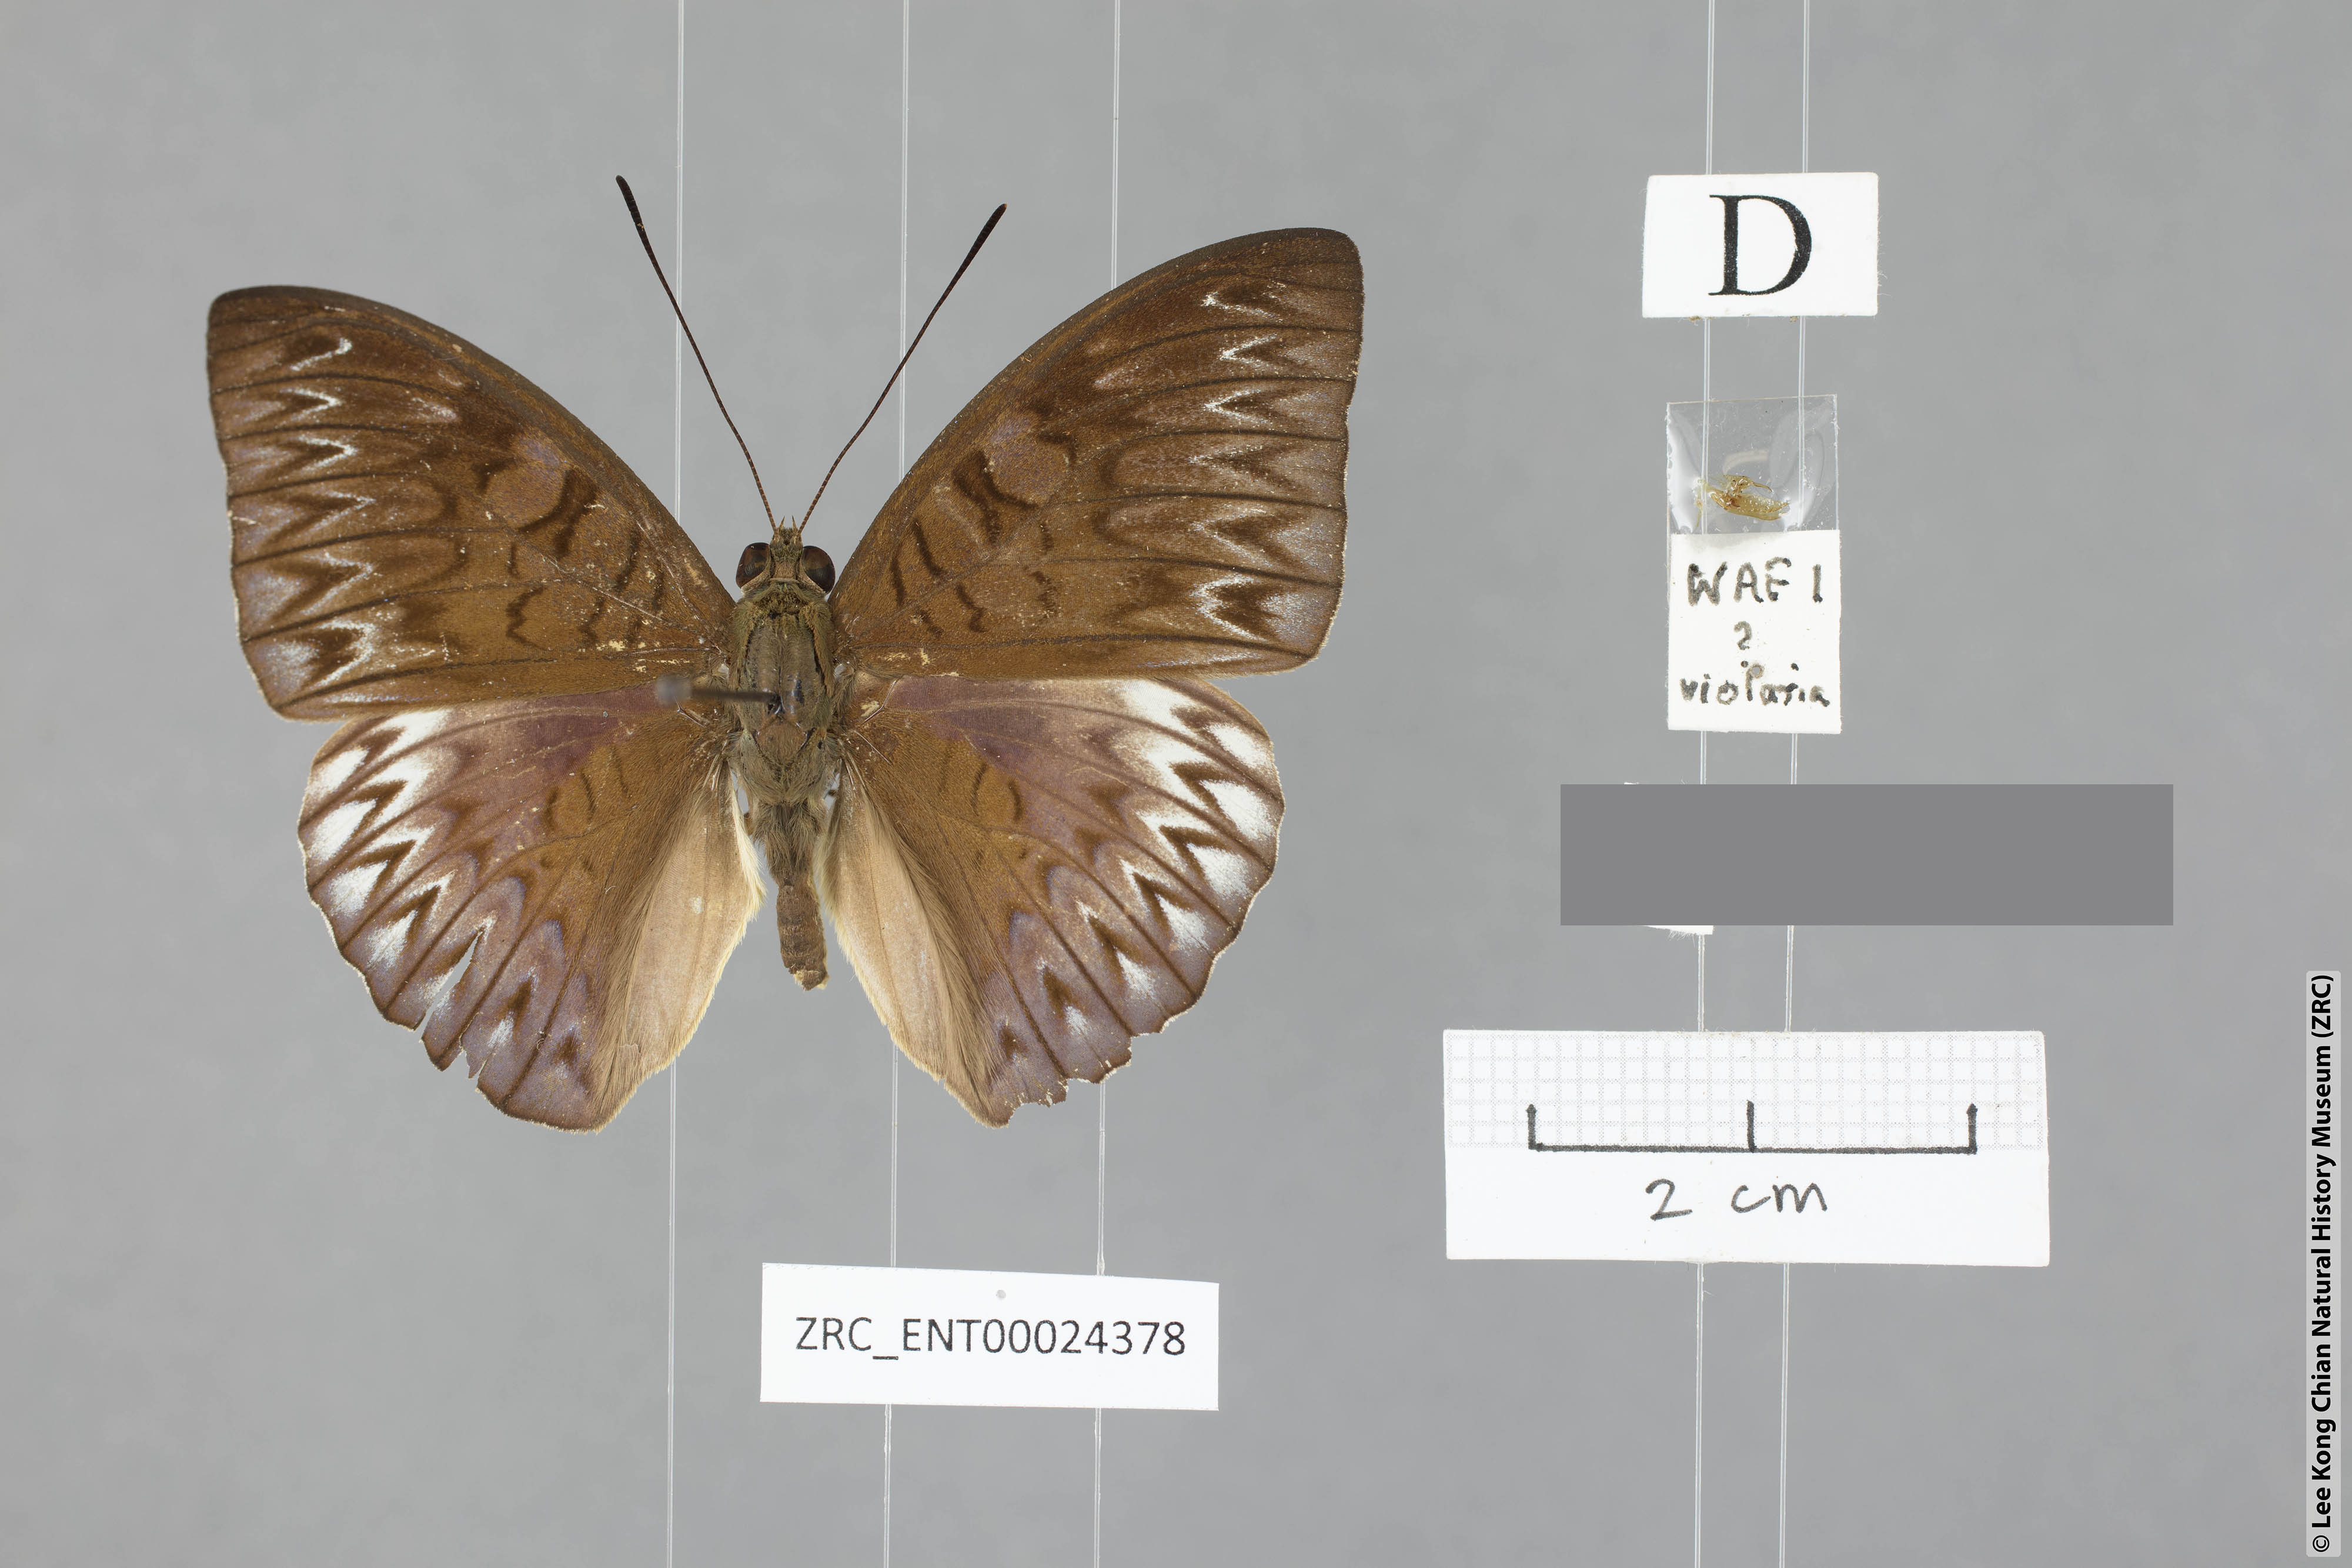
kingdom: Animalia
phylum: Arthropoda
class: Insecta
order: Lepidoptera
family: Nymphalidae
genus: Tanaecia
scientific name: Tanaecia clathrata
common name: Violet-bordered viscount
